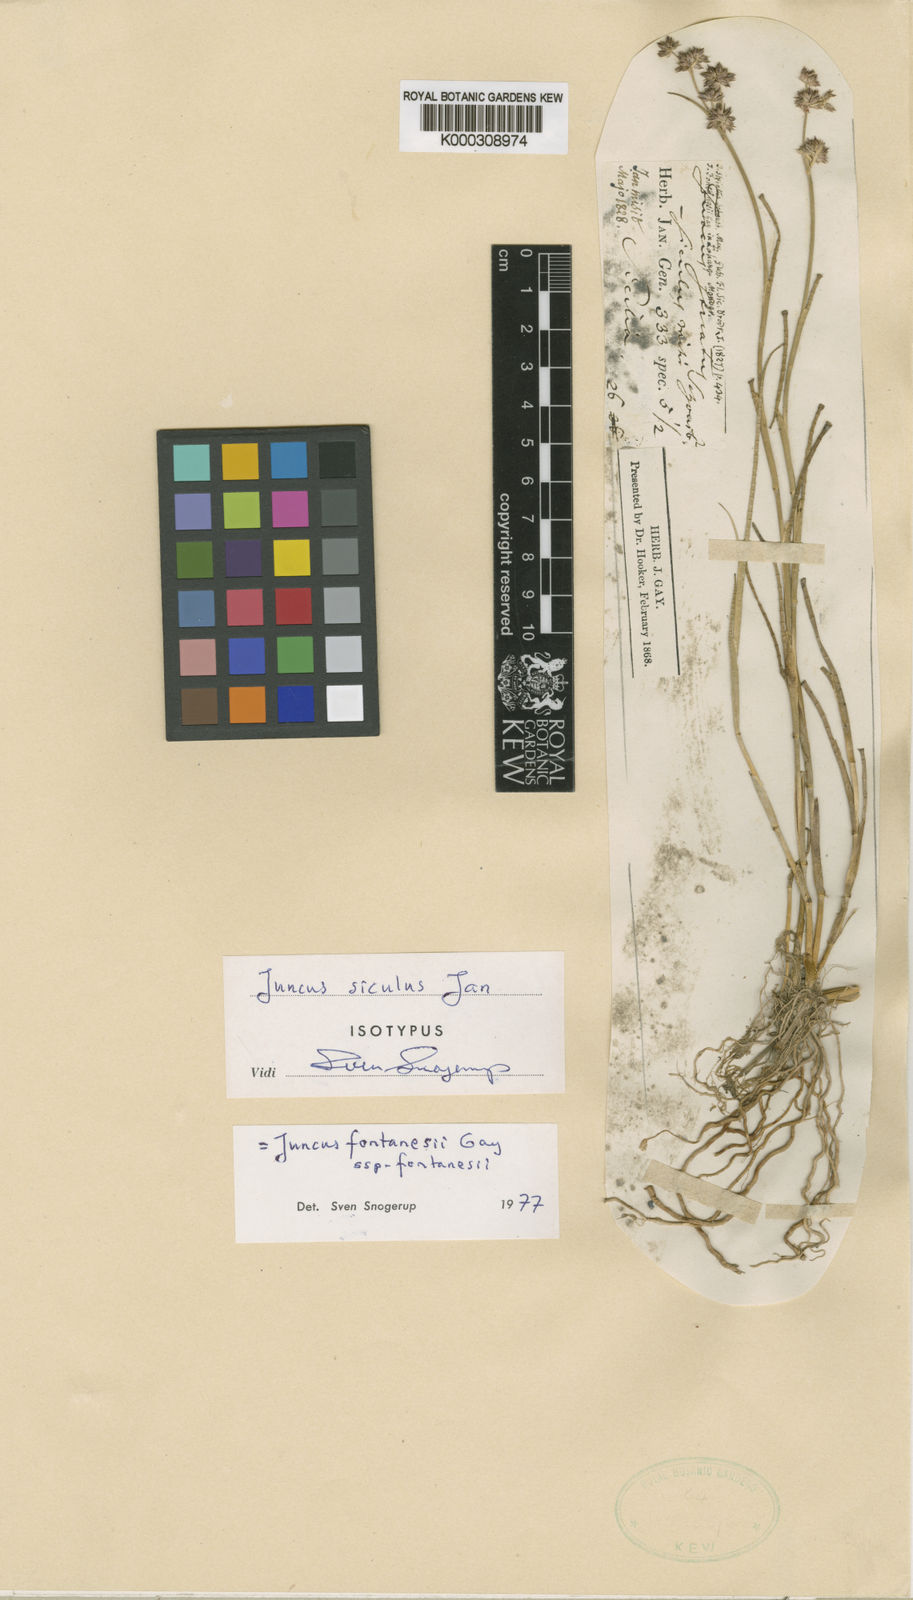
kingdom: Plantae
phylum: Tracheophyta
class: Liliopsida
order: Poales
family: Juncaceae
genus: Juncus
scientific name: Juncus fontanesii
